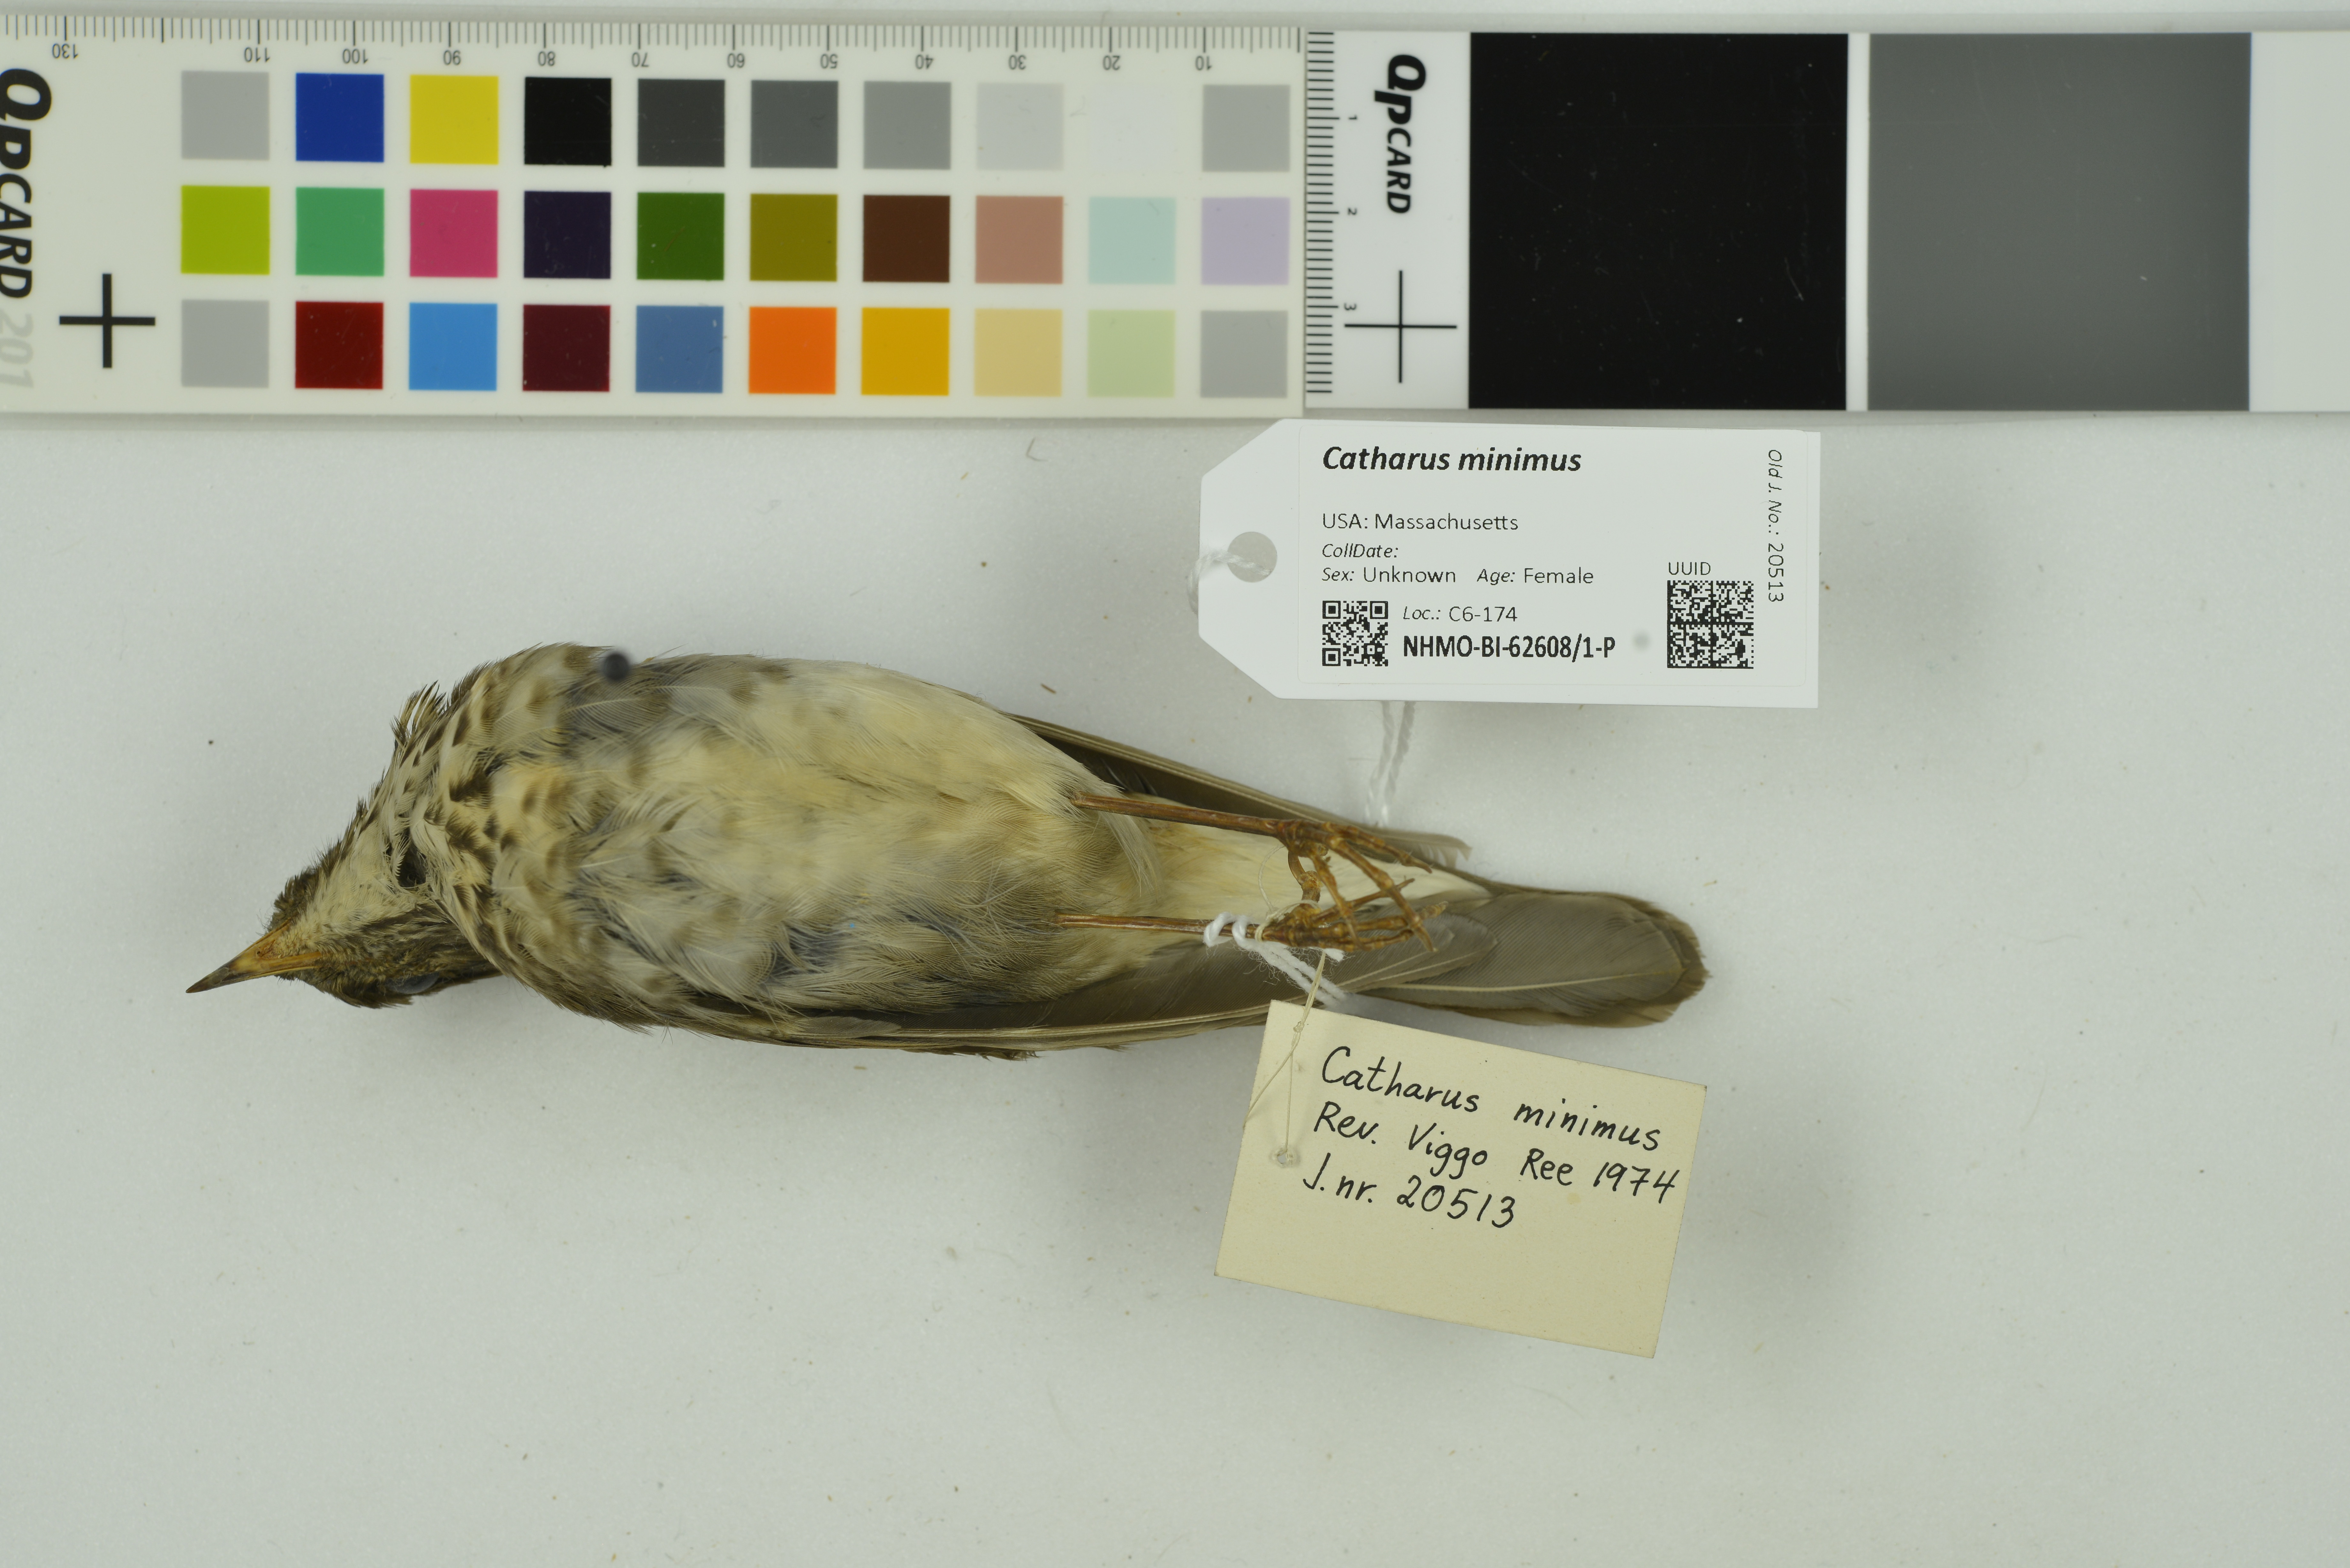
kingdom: Animalia
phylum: Chordata
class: Aves
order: Passeriformes
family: Turdidae
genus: Catharus
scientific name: Catharus minimus
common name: Grey-cheeked thrush
